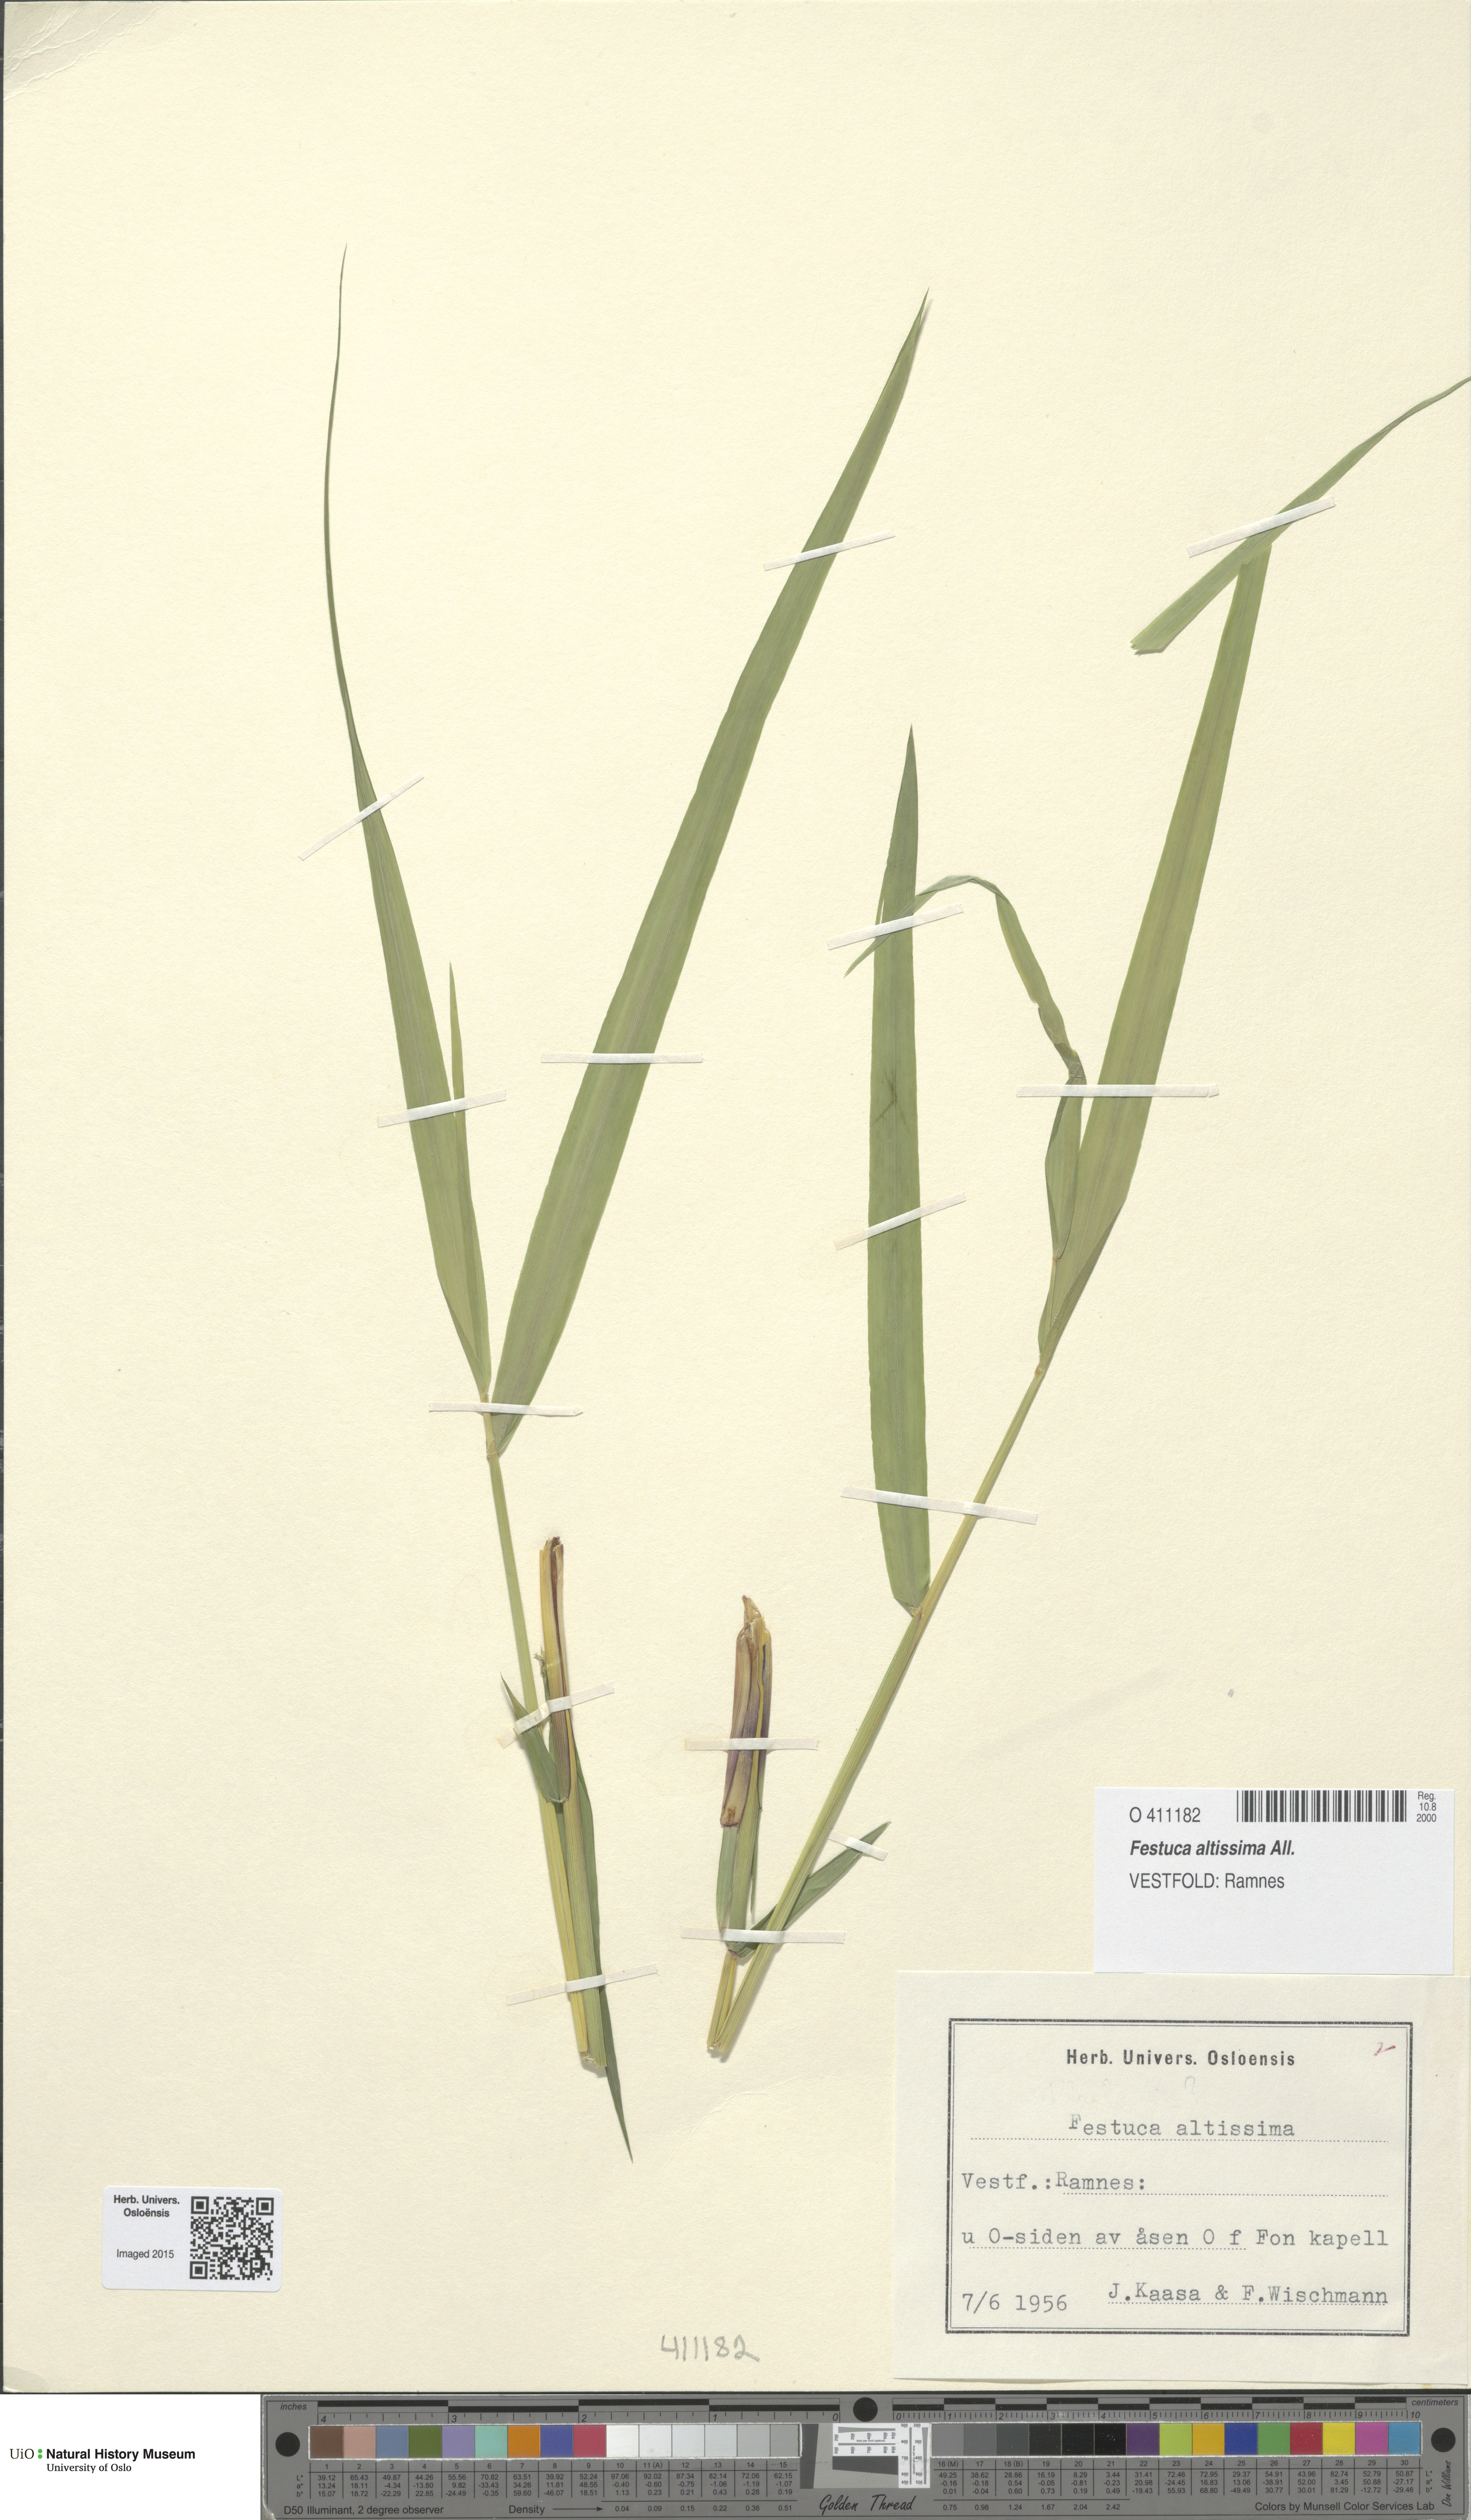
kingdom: Plantae
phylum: Tracheophyta
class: Liliopsida
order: Poales
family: Poaceae
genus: Festuca
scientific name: Festuca altissima
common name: Wood fescue
